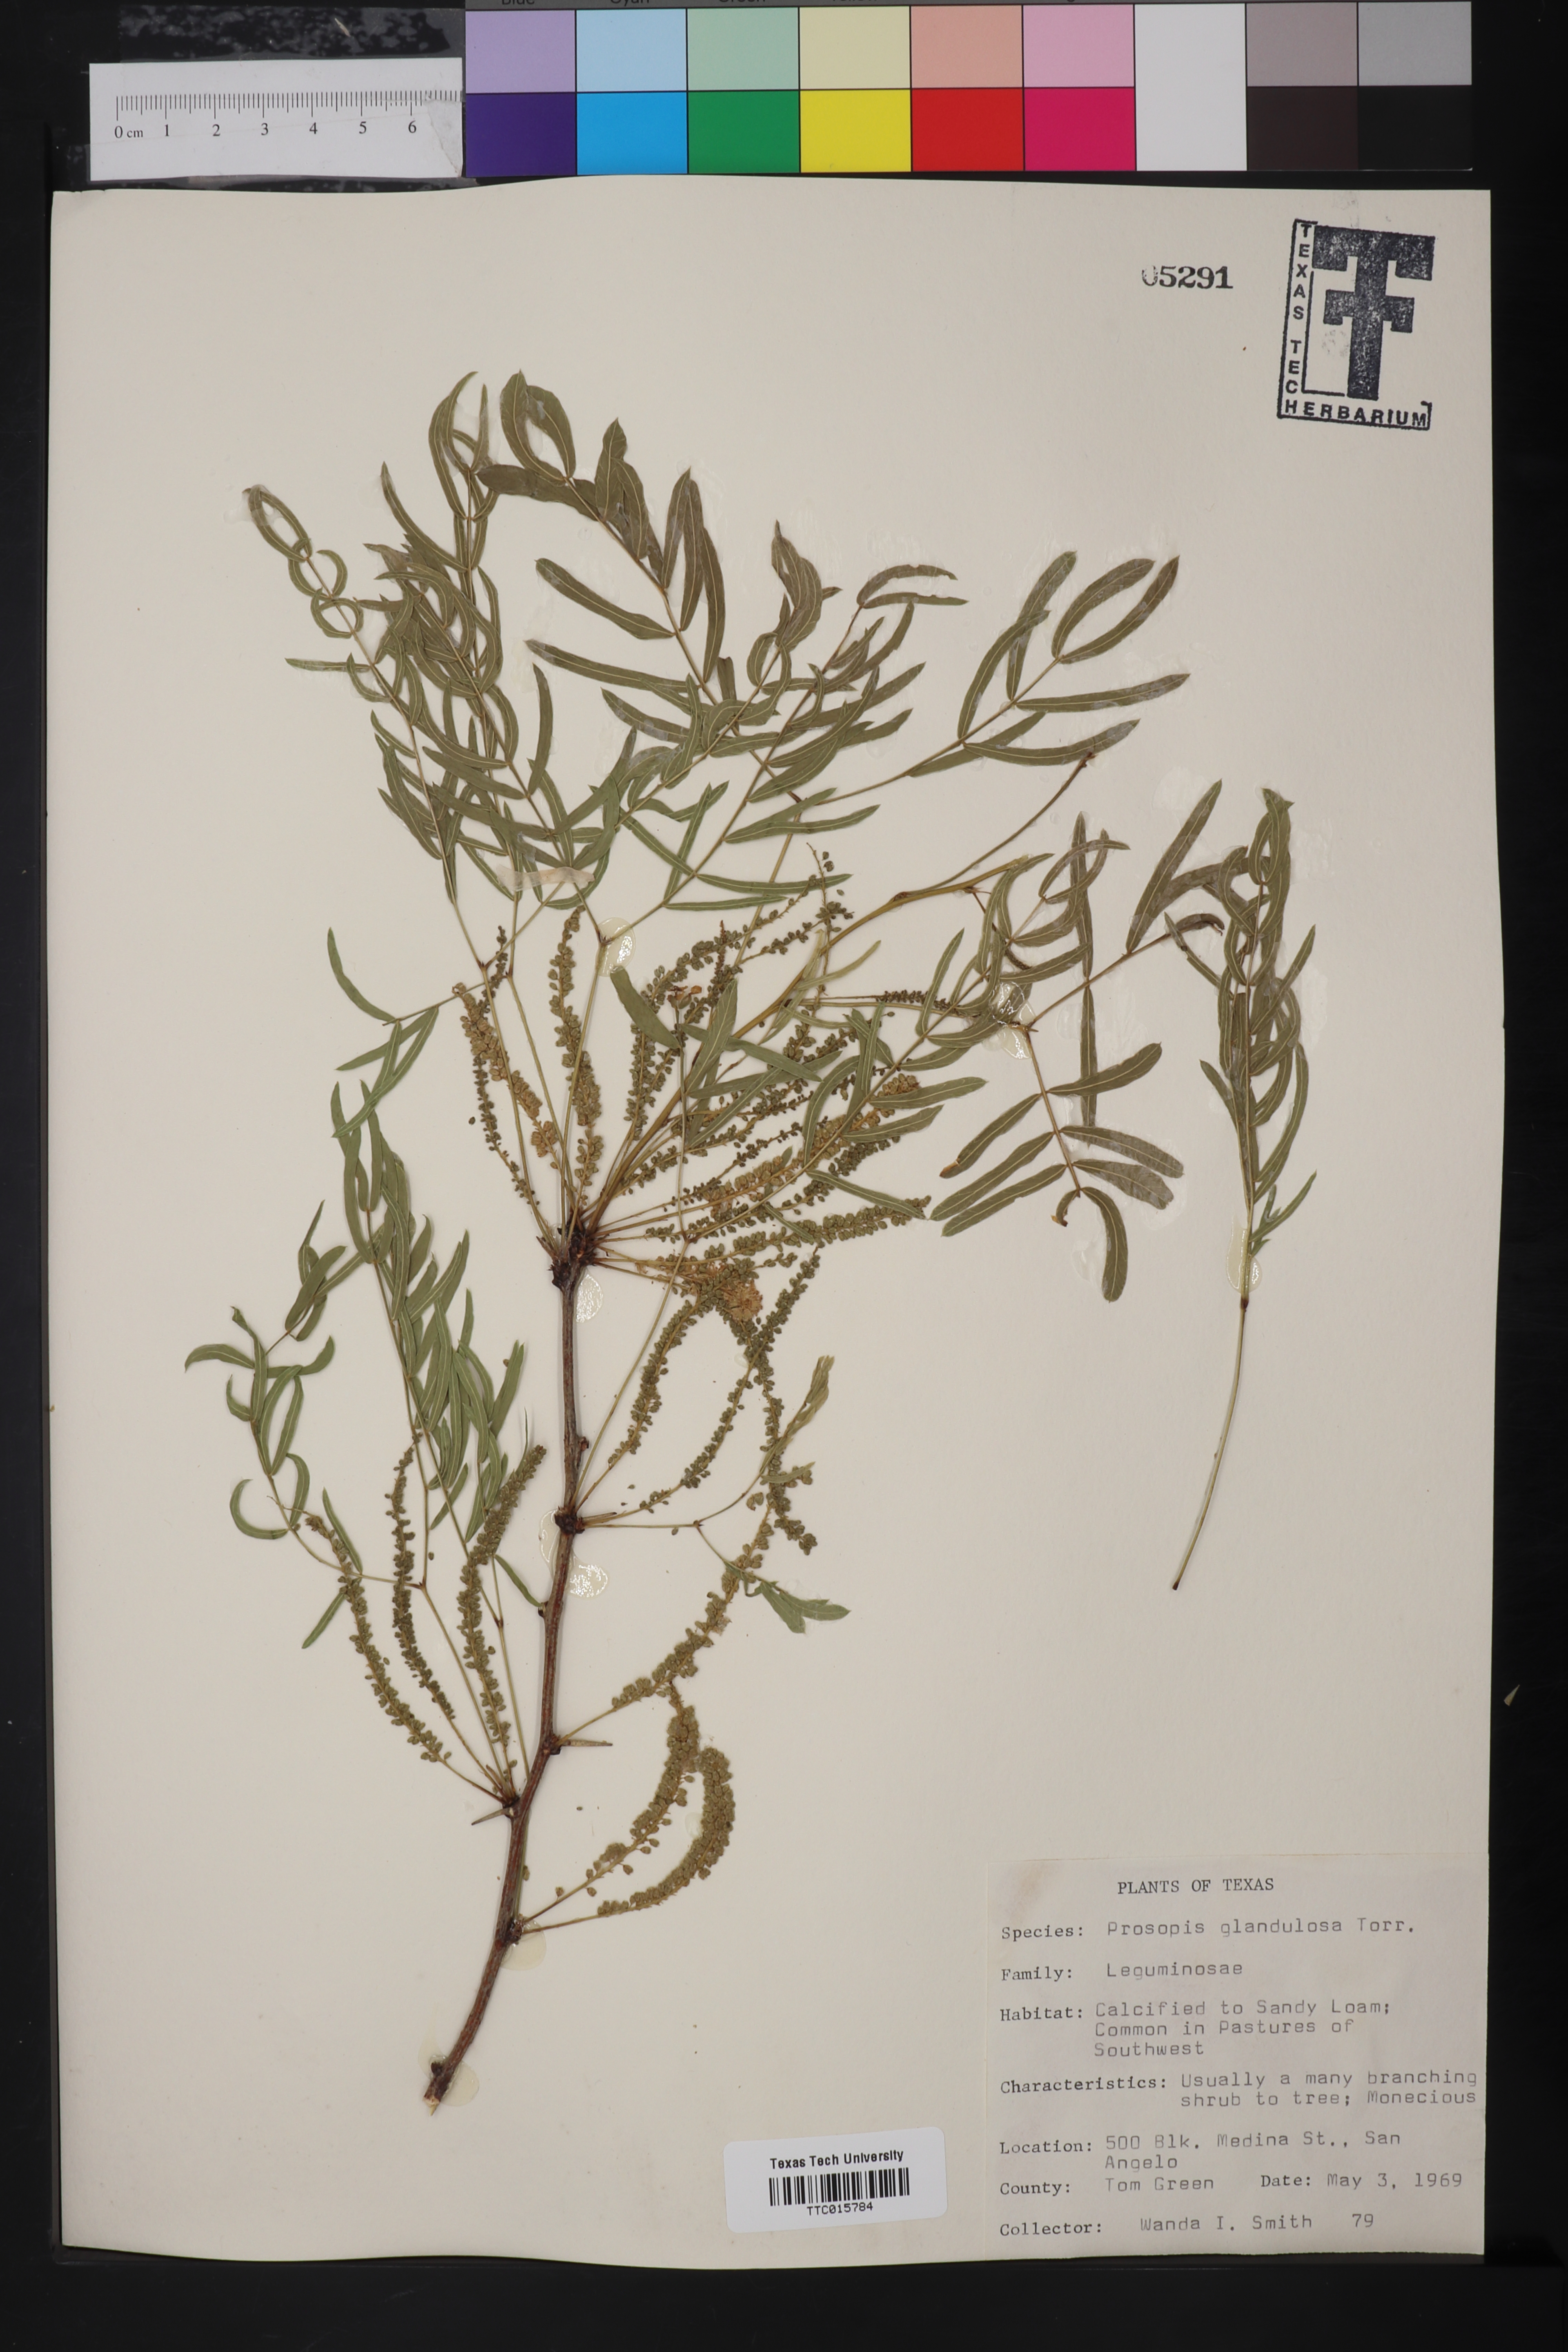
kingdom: Plantae
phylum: Tracheophyta
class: Magnoliopsida
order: Fabales
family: Fabaceae
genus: Prosopis
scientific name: Prosopis glandulosa
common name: Honey mesquite
